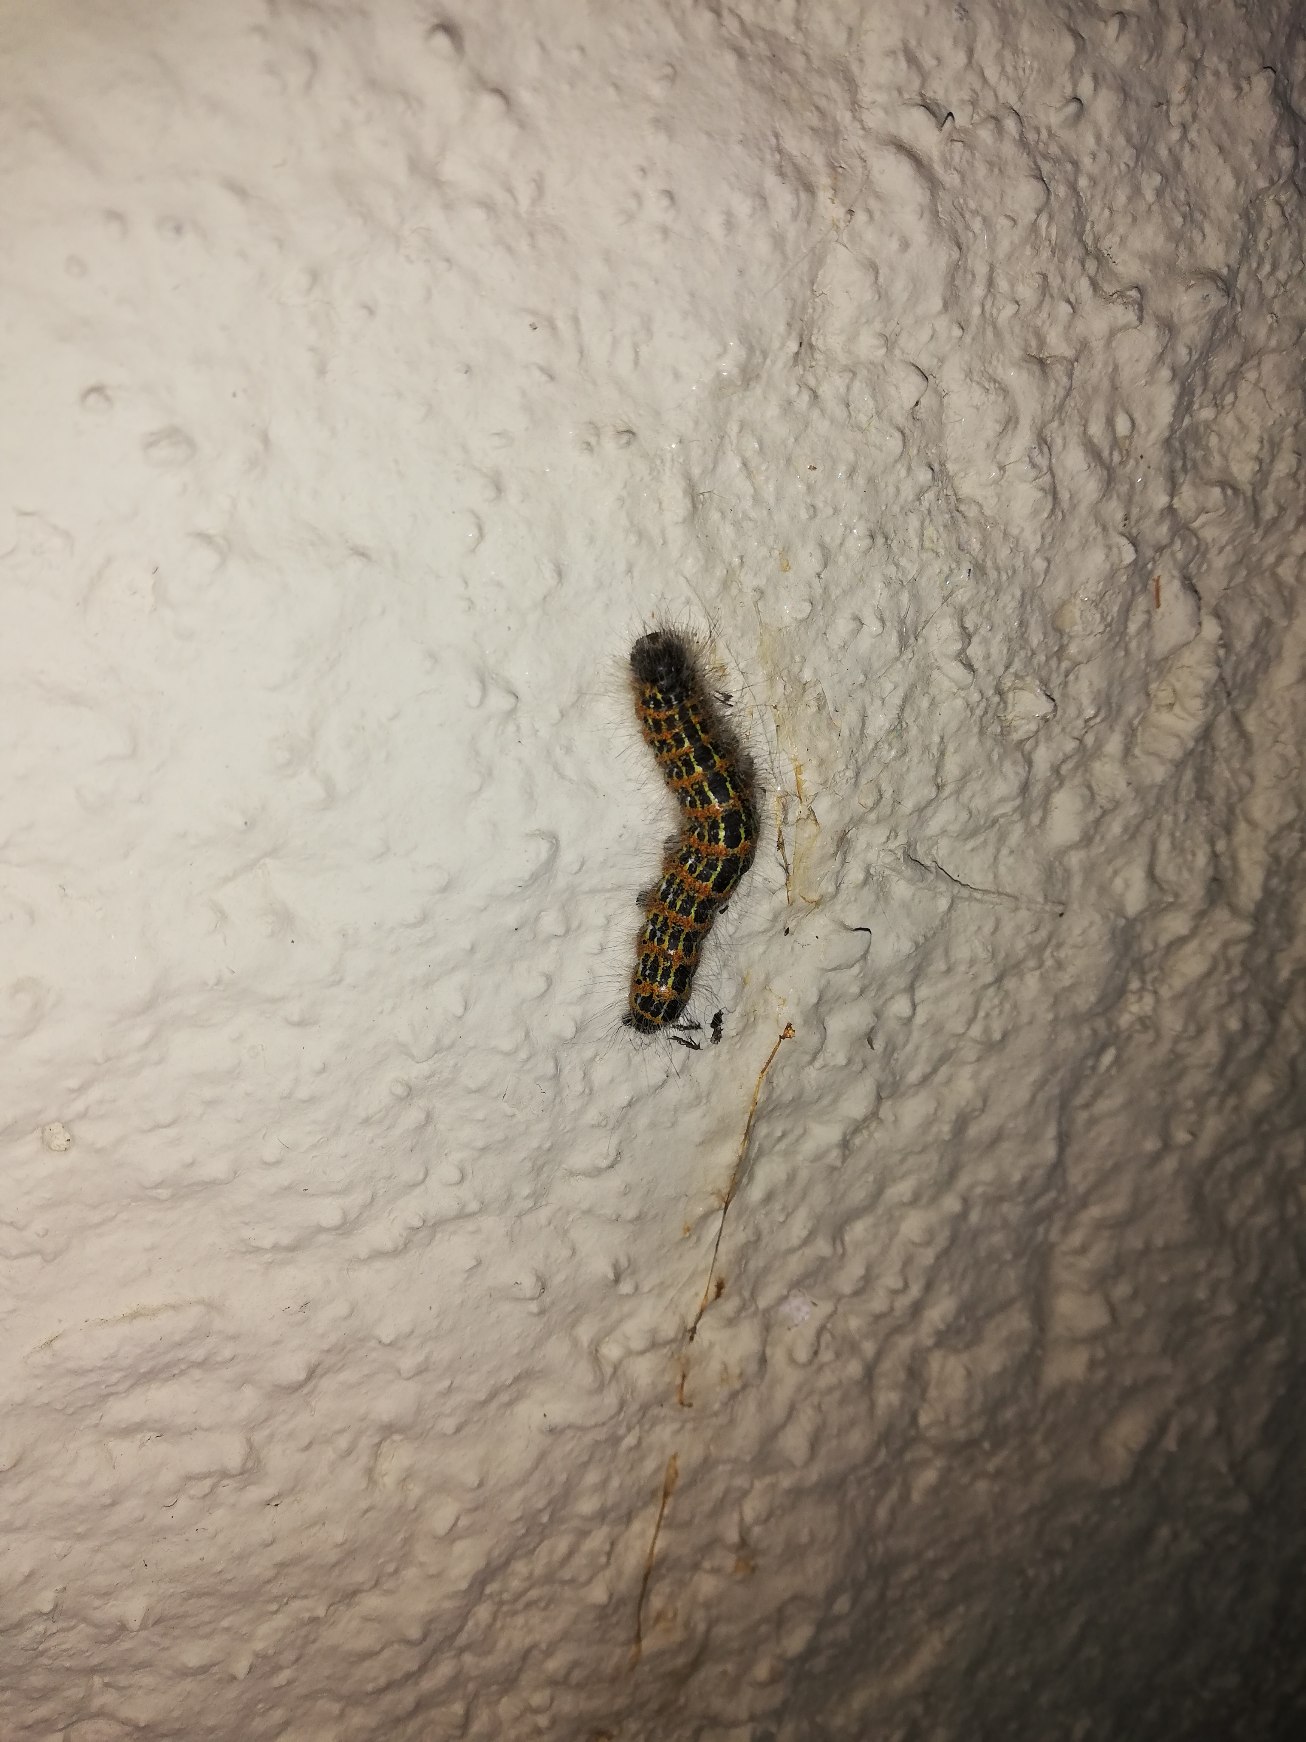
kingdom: Animalia
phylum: Arthropoda
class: Insecta
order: Lepidoptera
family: Notodontidae
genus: Phalera
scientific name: Phalera bucephala
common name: Måneplet
